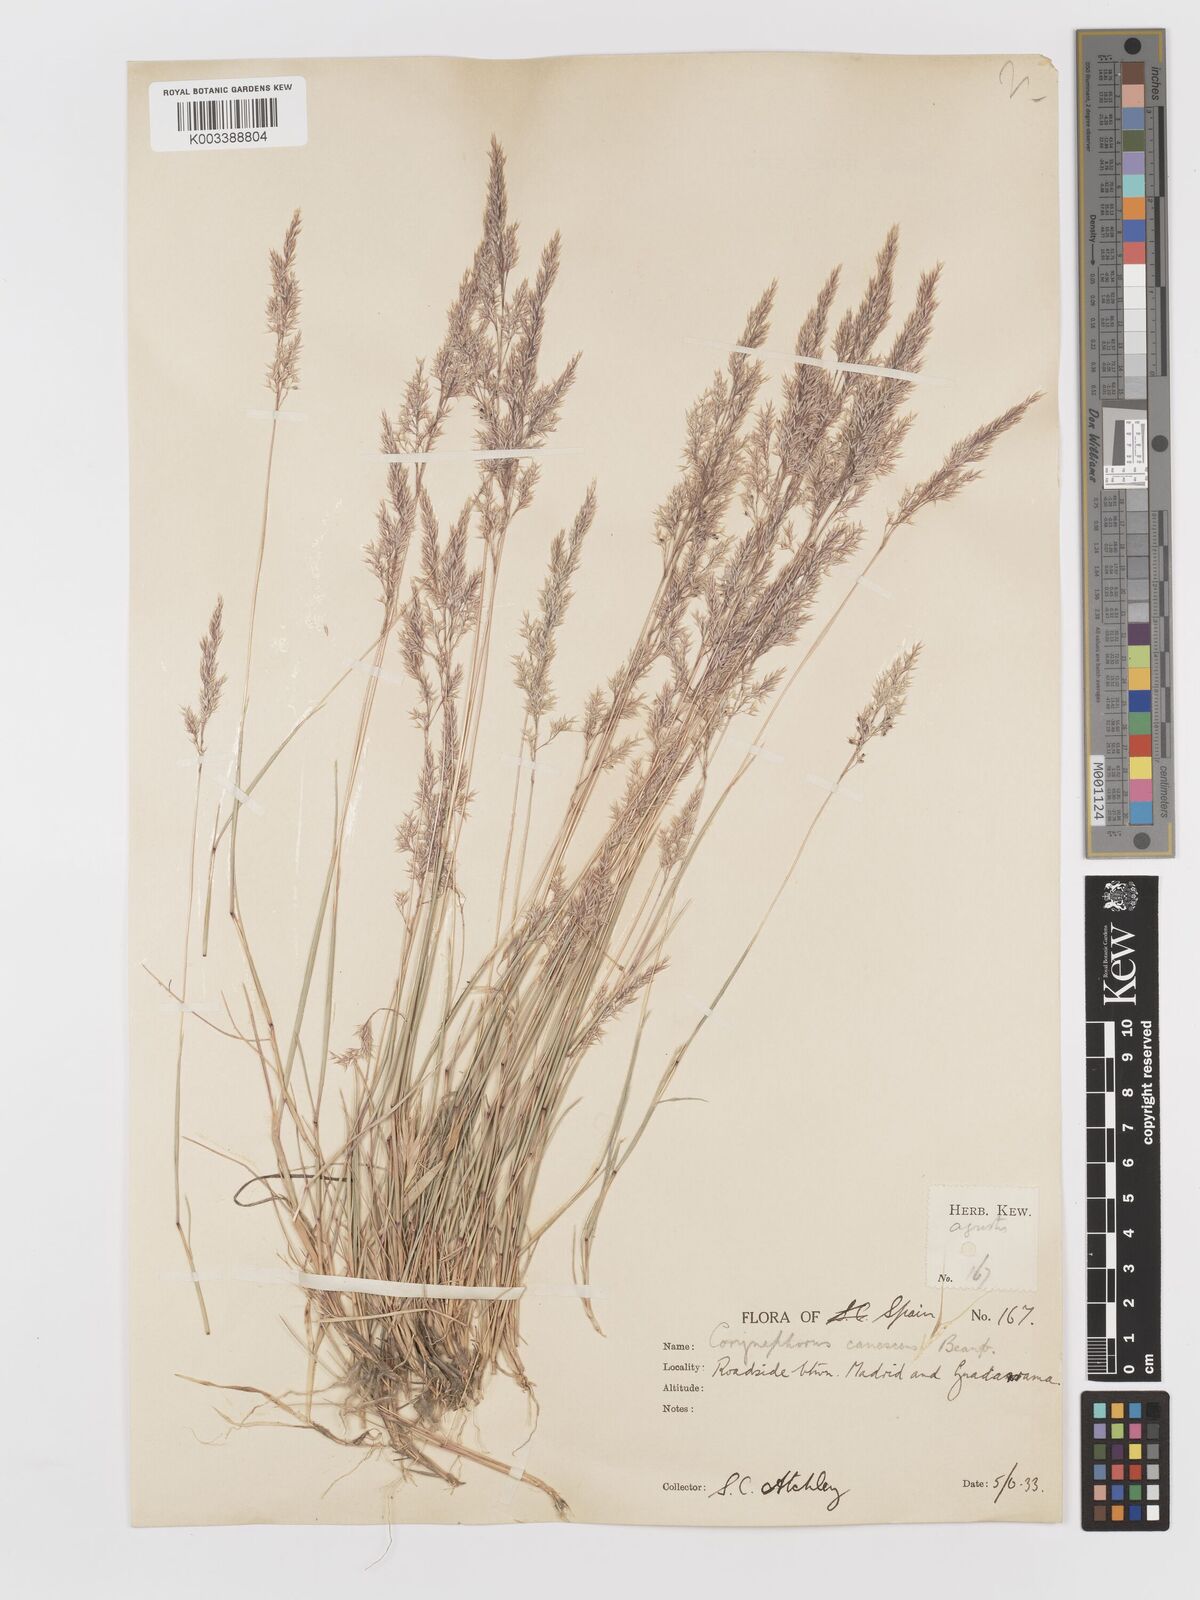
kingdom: Plantae
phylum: Tracheophyta
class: Liliopsida
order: Poales
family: Poaceae
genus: Corynephorus
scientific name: Corynephorus canescens
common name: Grey hair-grass
